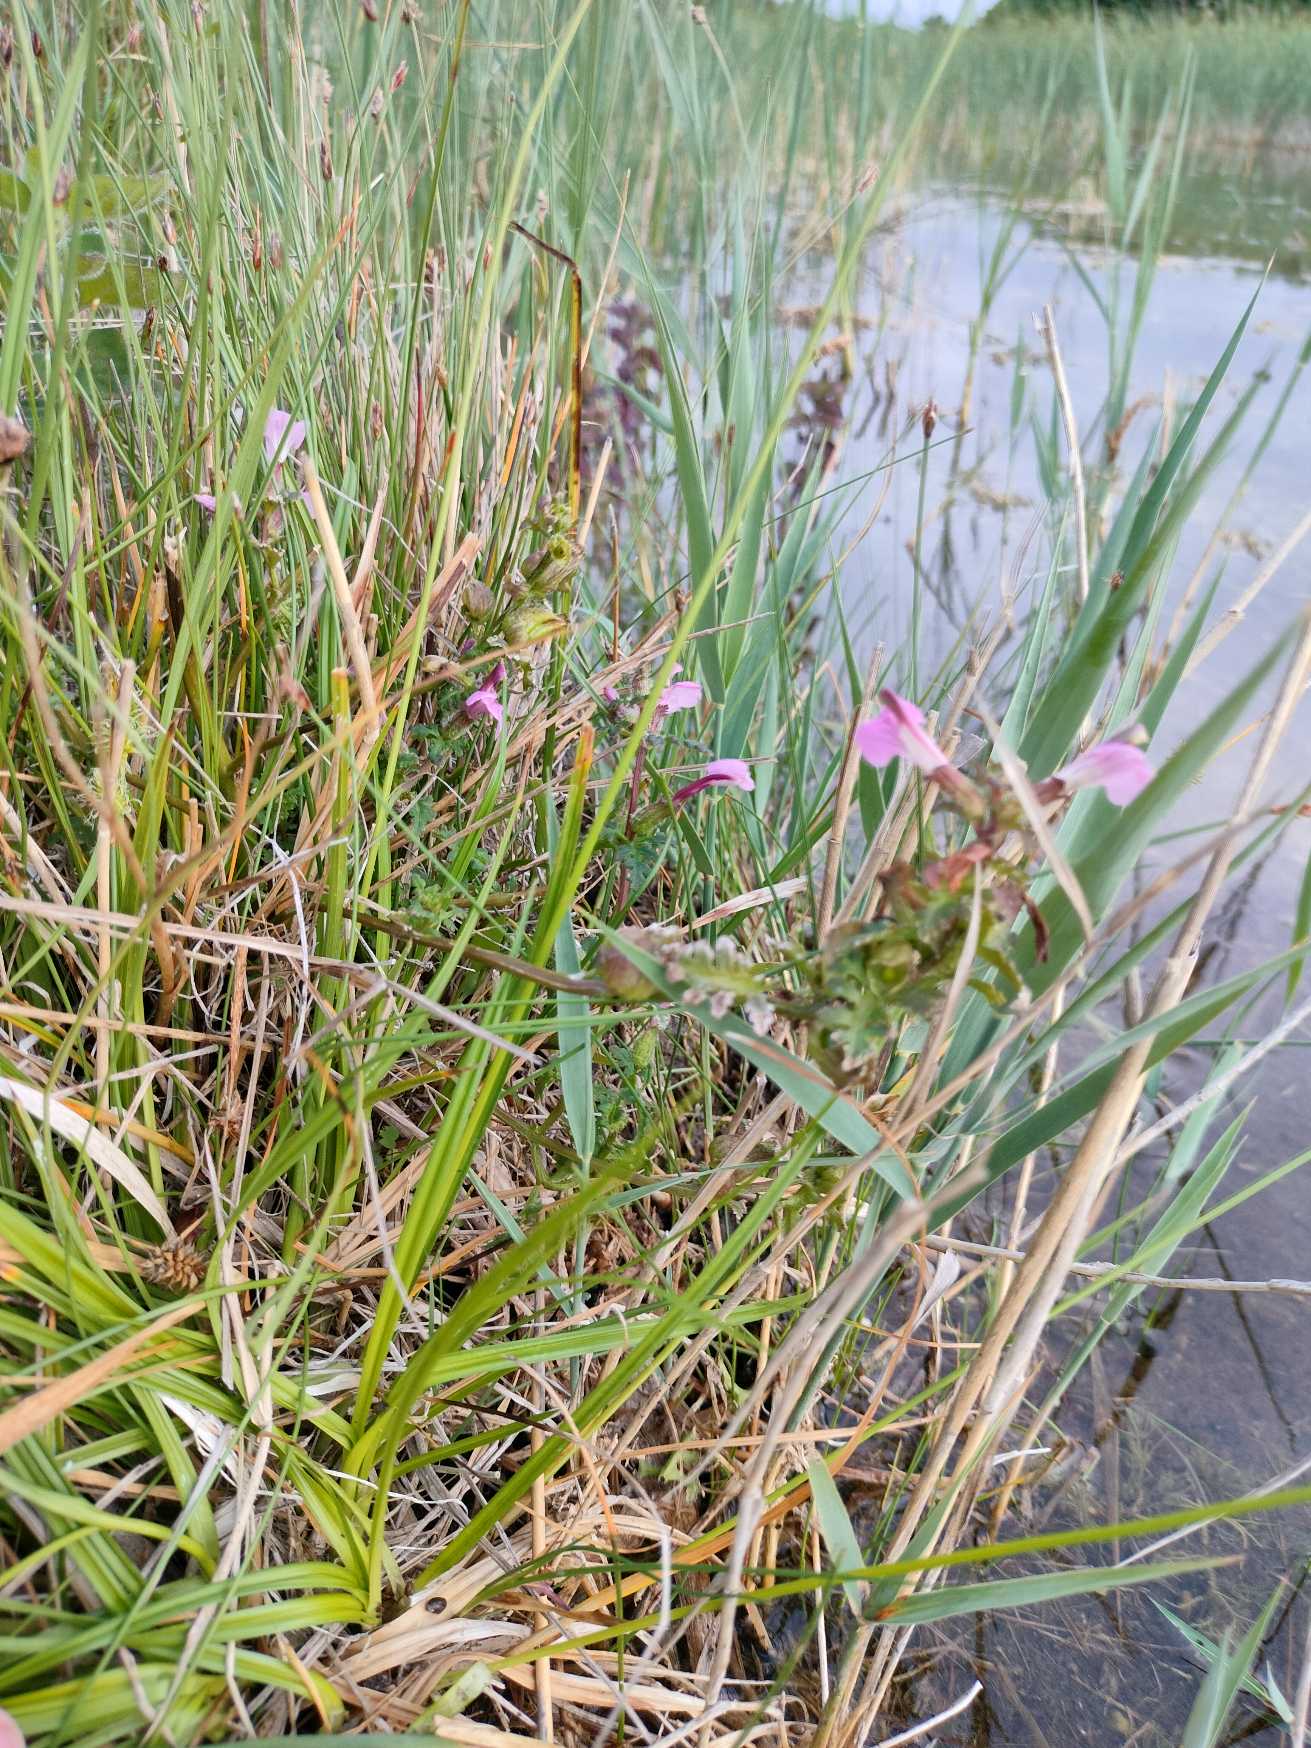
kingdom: Plantae
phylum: Tracheophyta
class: Magnoliopsida
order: Lamiales
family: Orobanchaceae
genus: Pedicularis
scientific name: Pedicularis palustris
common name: Eng-troldurt
